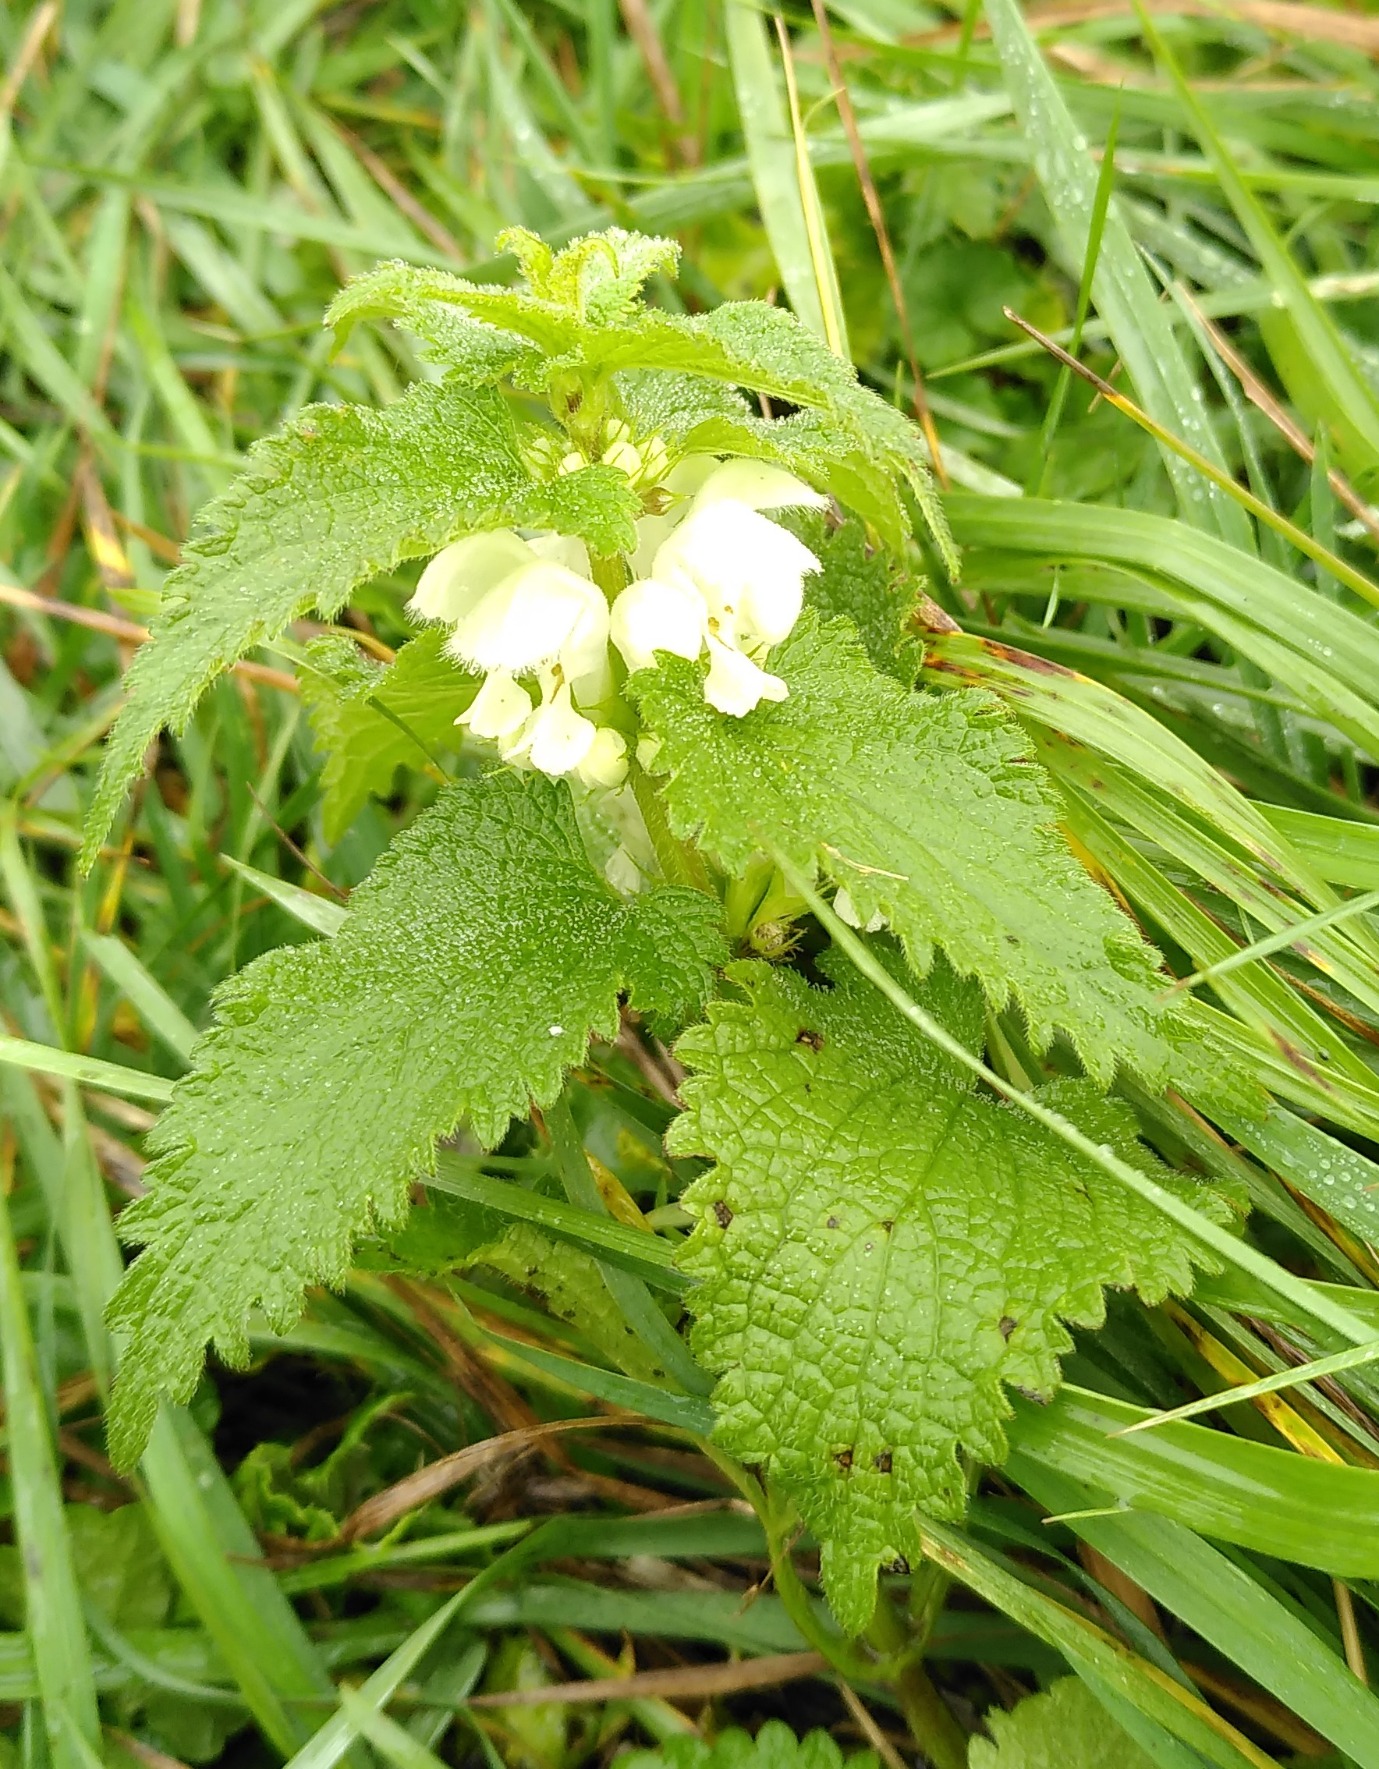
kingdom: Plantae
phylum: Tracheophyta
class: Magnoliopsida
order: Lamiales
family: Lamiaceae
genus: Lamium
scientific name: Lamium album
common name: Døvnælde
